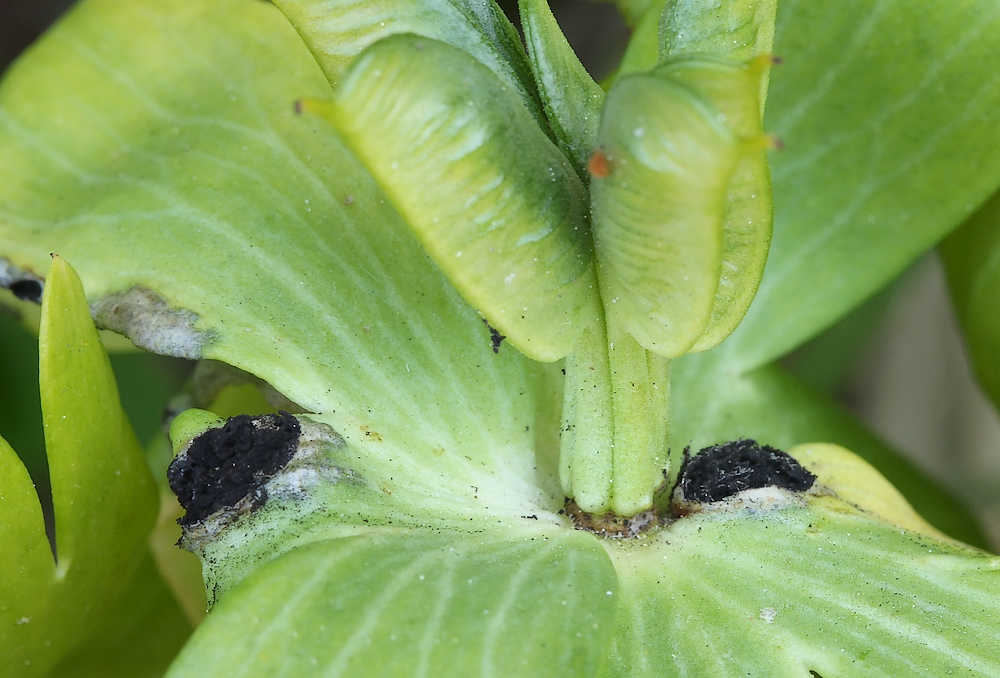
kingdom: Fungi
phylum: Basidiomycota
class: Ustilaginomycetes
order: Urocystidales
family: Urocystidaceae
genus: Urocystis
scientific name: Urocystis eranthidis
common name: erantis-brand
